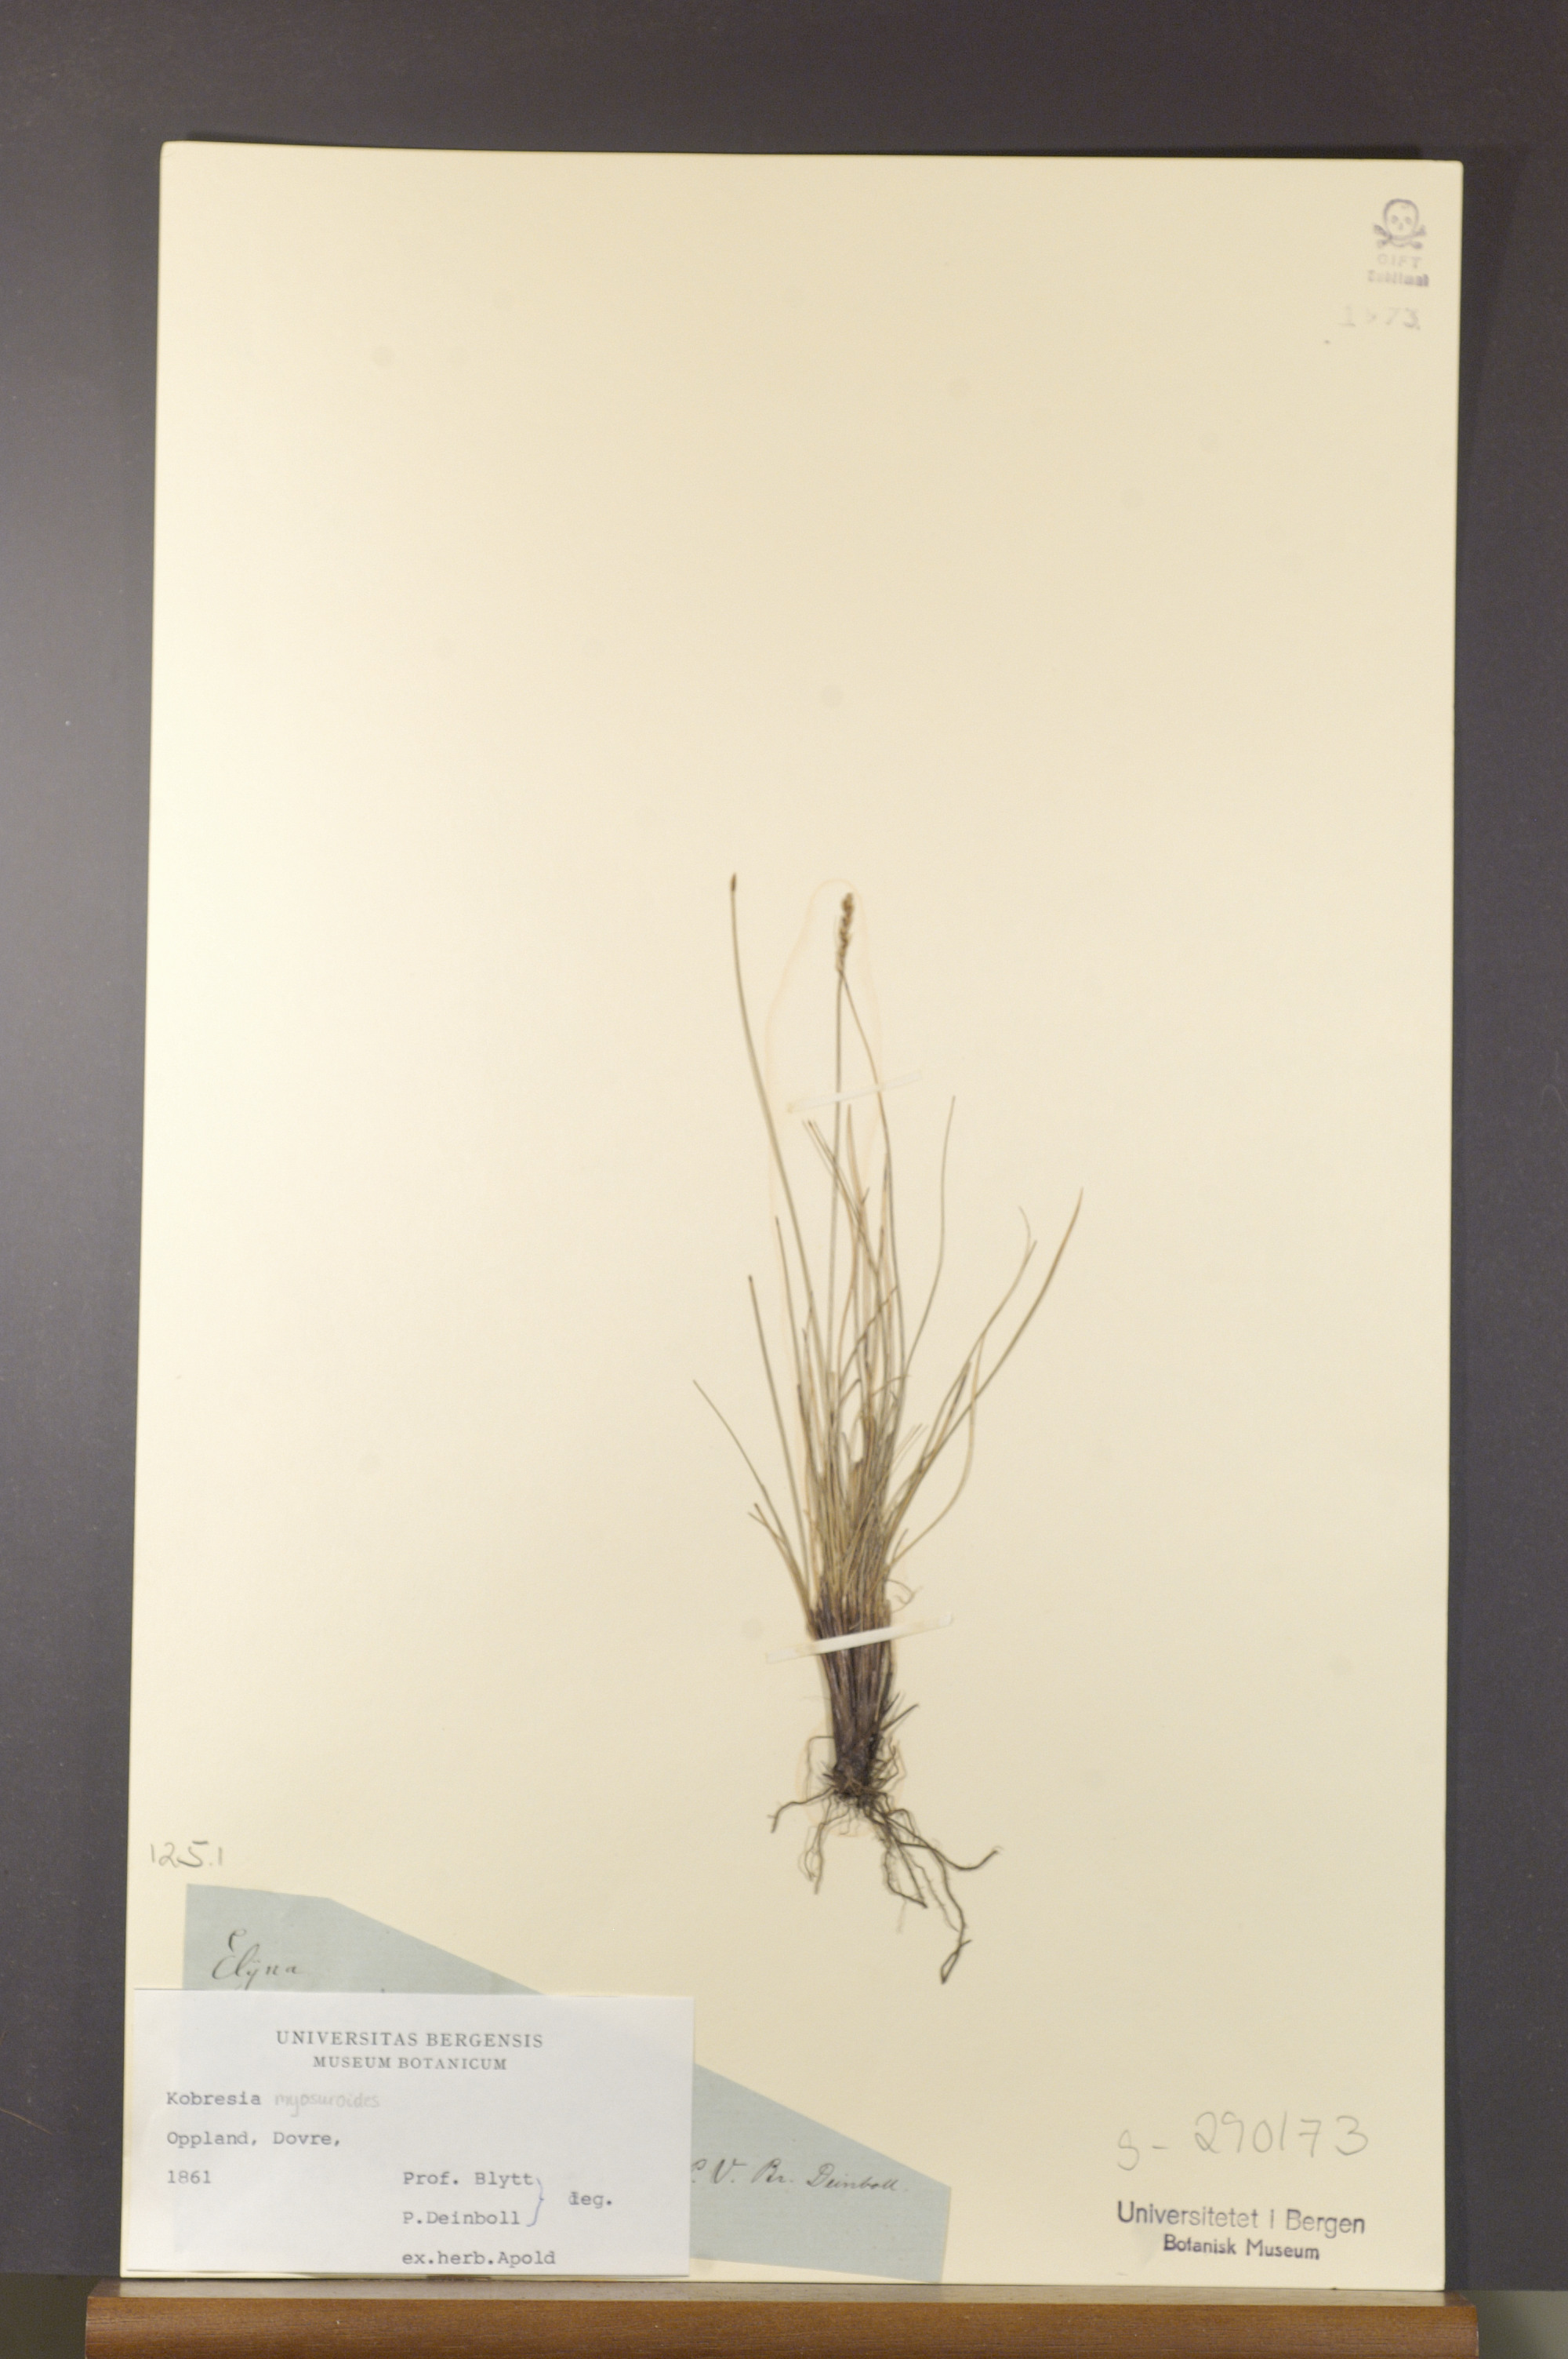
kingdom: Plantae
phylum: Tracheophyta
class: Liliopsida
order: Poales
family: Cyperaceae
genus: Carex
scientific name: Carex myosuroides
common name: Bellard's bog sedge
